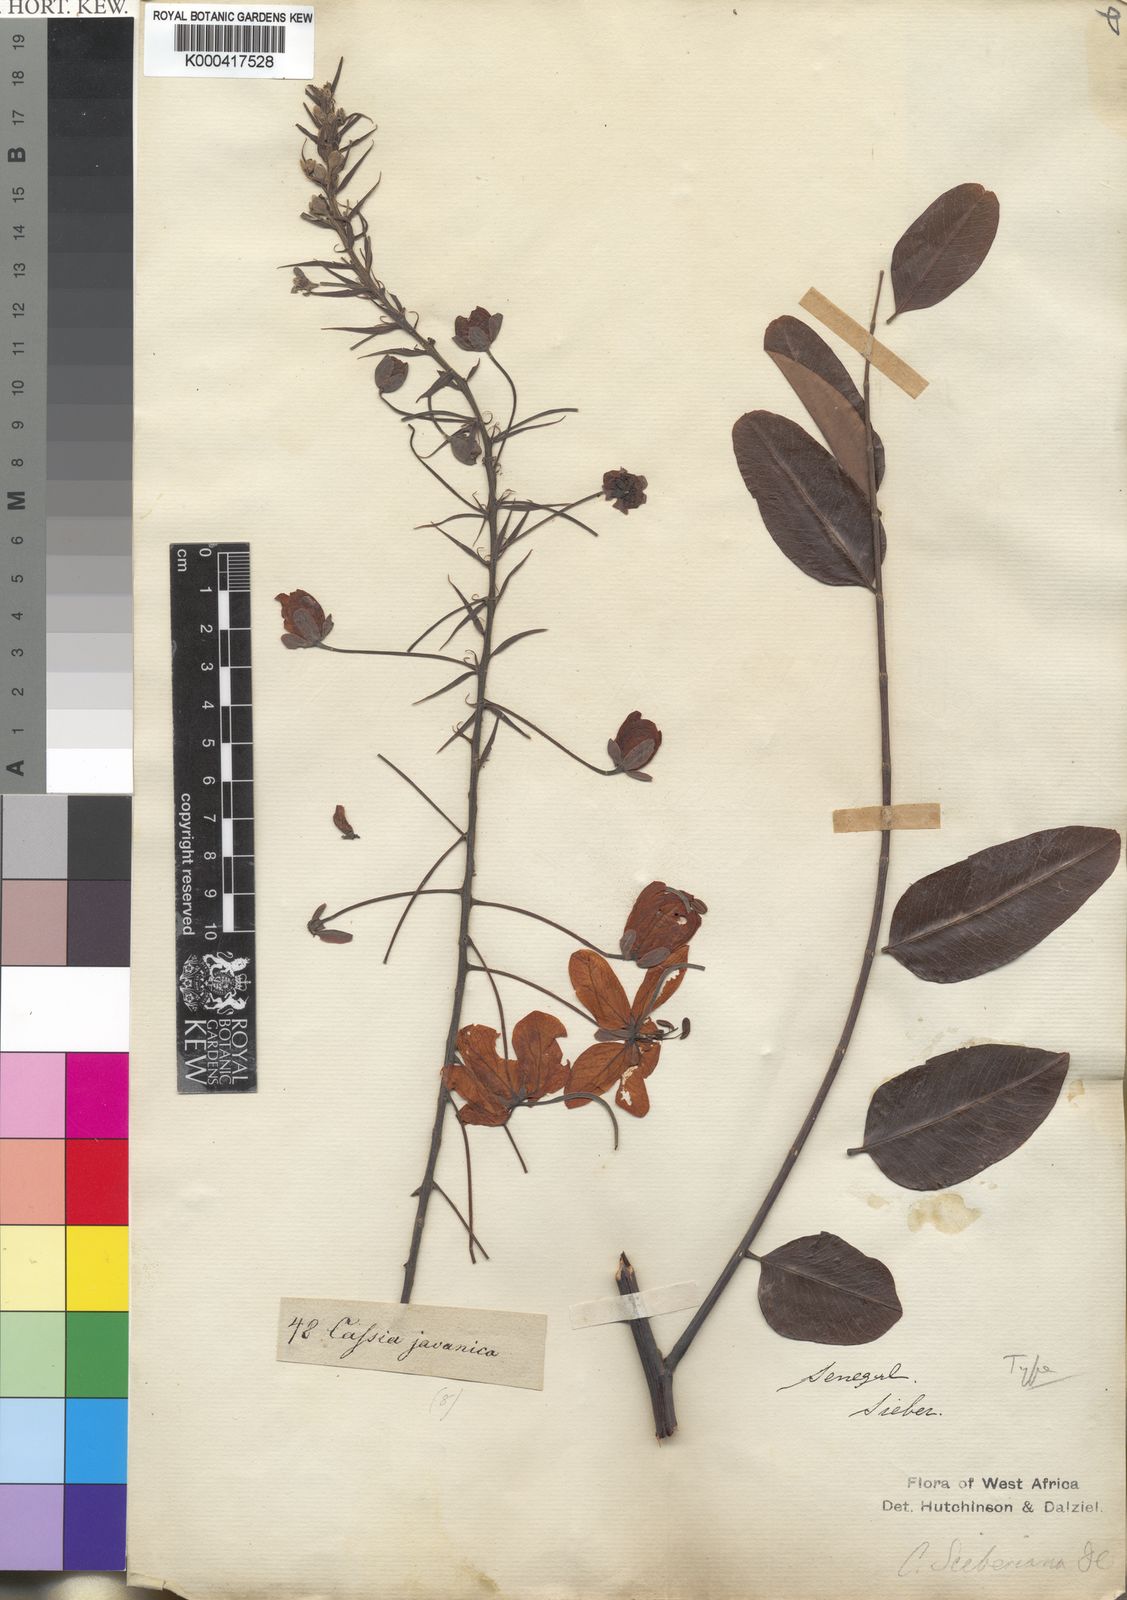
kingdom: Plantae
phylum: Tracheophyta
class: Magnoliopsida
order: Fabales
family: Fabaceae
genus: Cassia
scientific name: Cassia sieberiana
